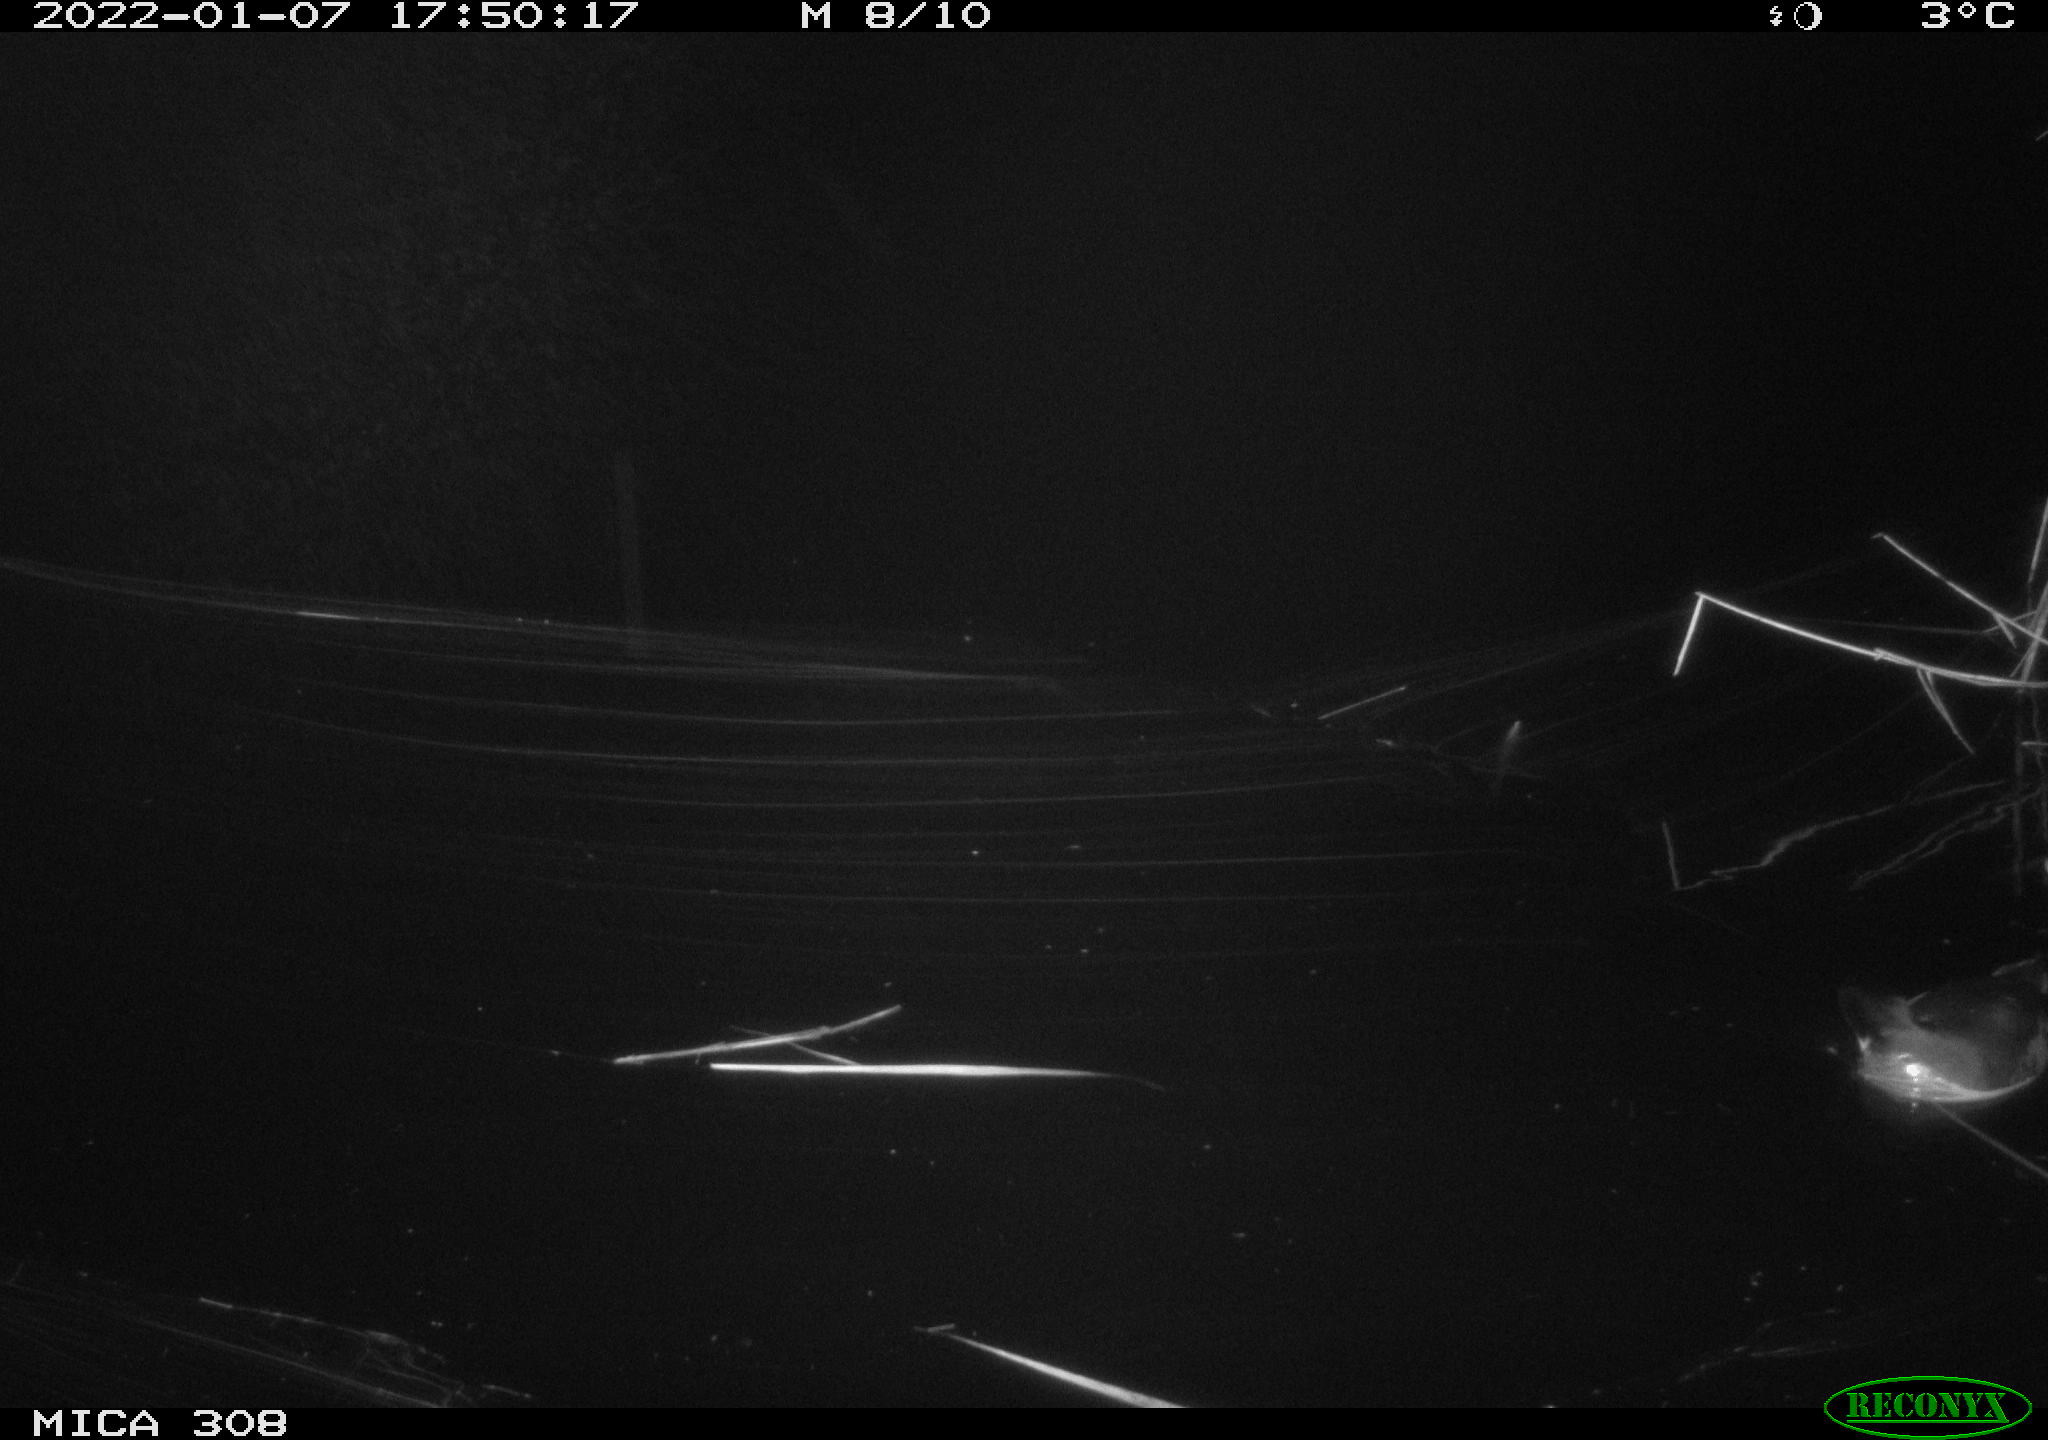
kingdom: Animalia
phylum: Chordata
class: Aves
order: Gruiformes
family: Rallidae
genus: Gallinula
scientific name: Gallinula chloropus
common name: Common moorhen
